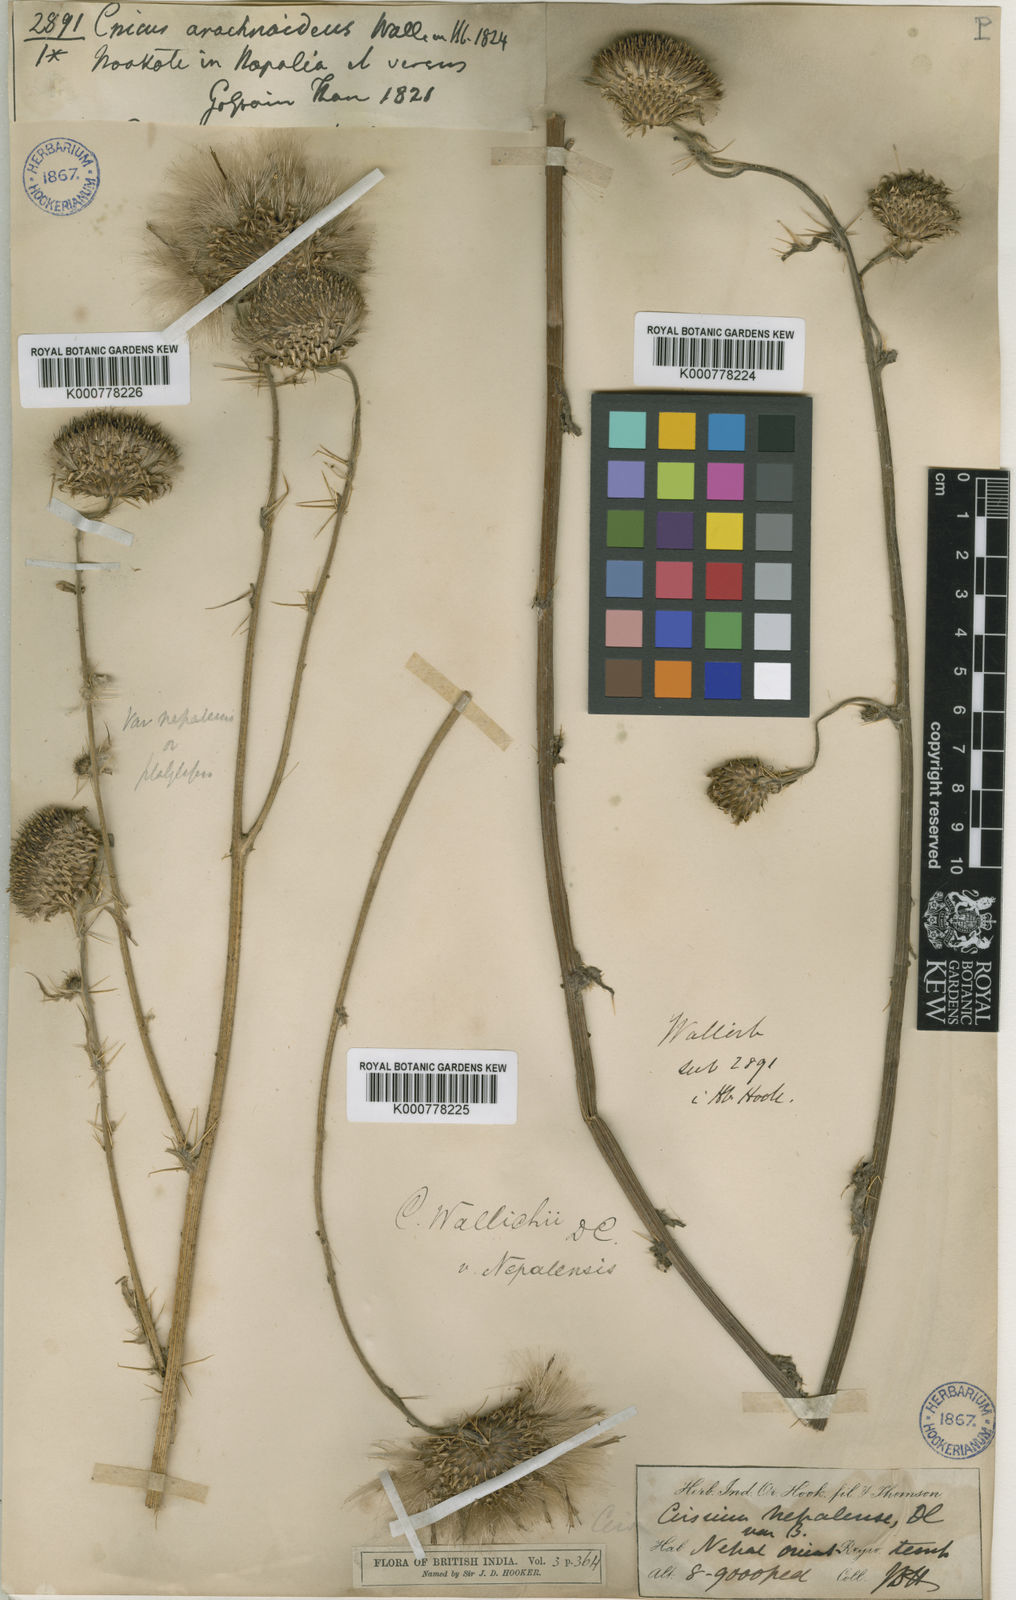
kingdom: Plantae
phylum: Tracheophyta
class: Magnoliopsida
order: Asterales
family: Asteraceae
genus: Cirsium
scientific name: Cirsium wallichii
